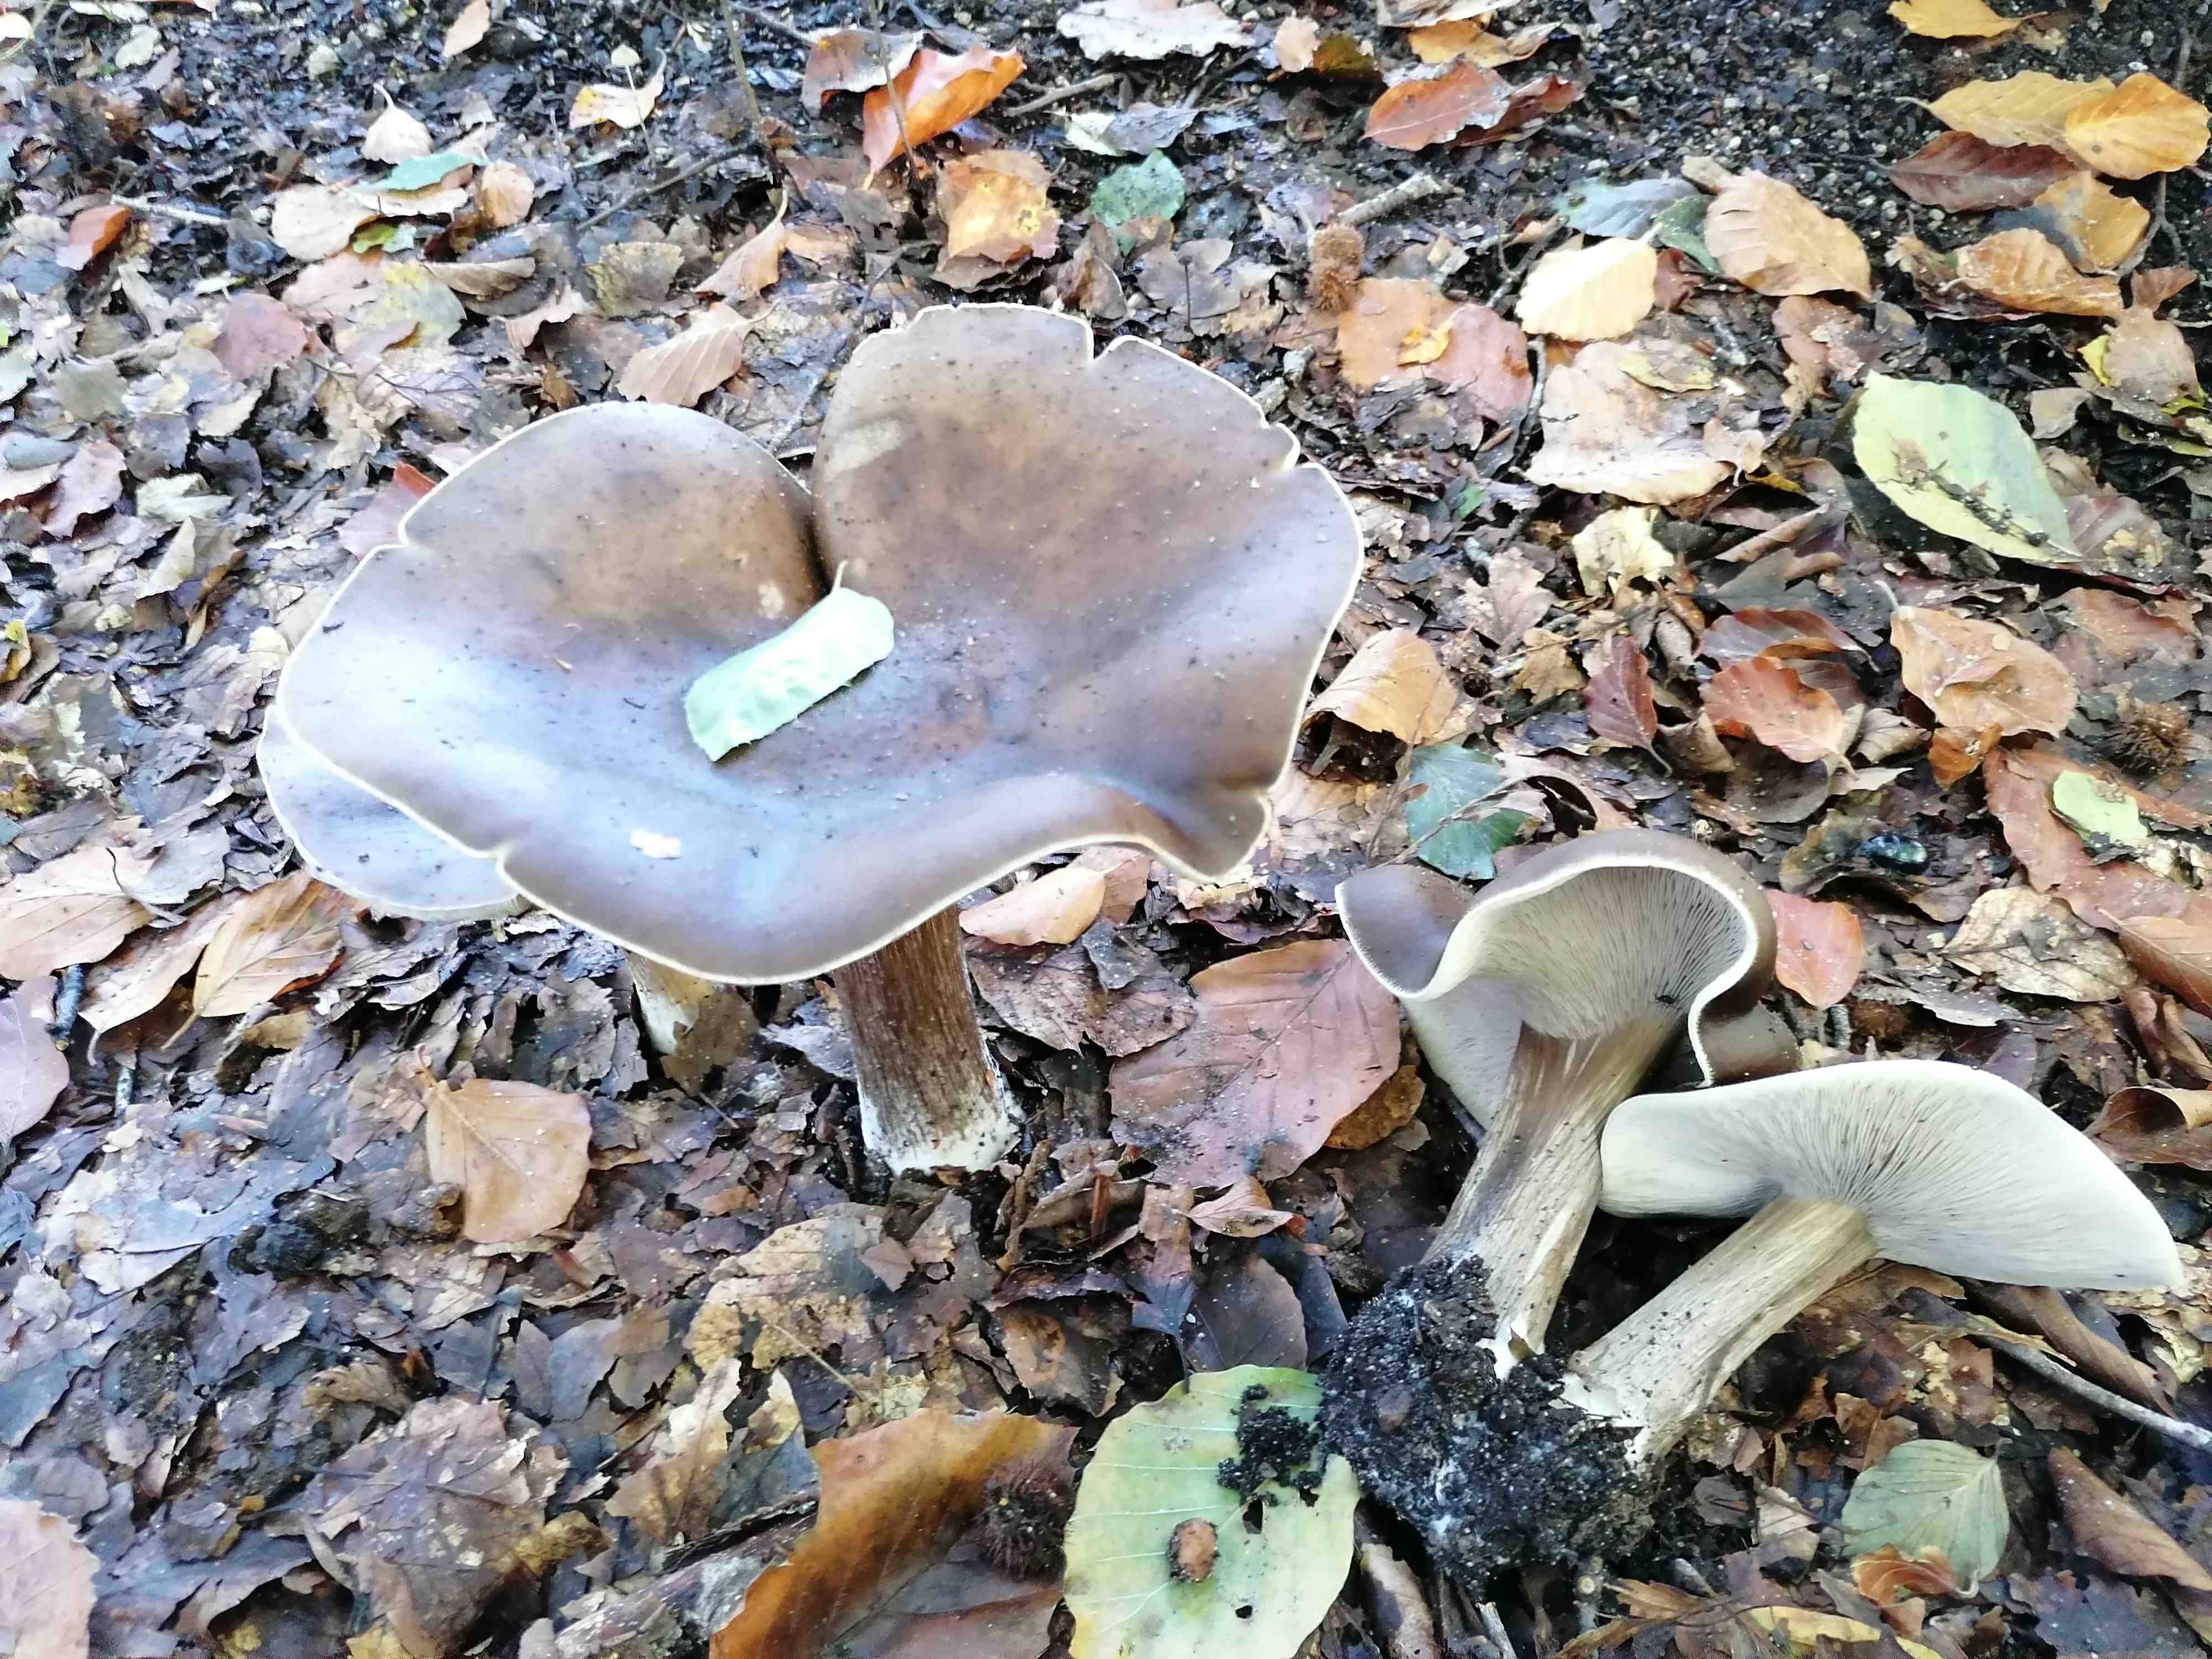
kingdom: Fungi
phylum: Basidiomycota
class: Agaricomycetes
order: Agaricales
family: Tricholomataceae
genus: Melanoleuca
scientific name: Melanoleuca
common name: munkehat
